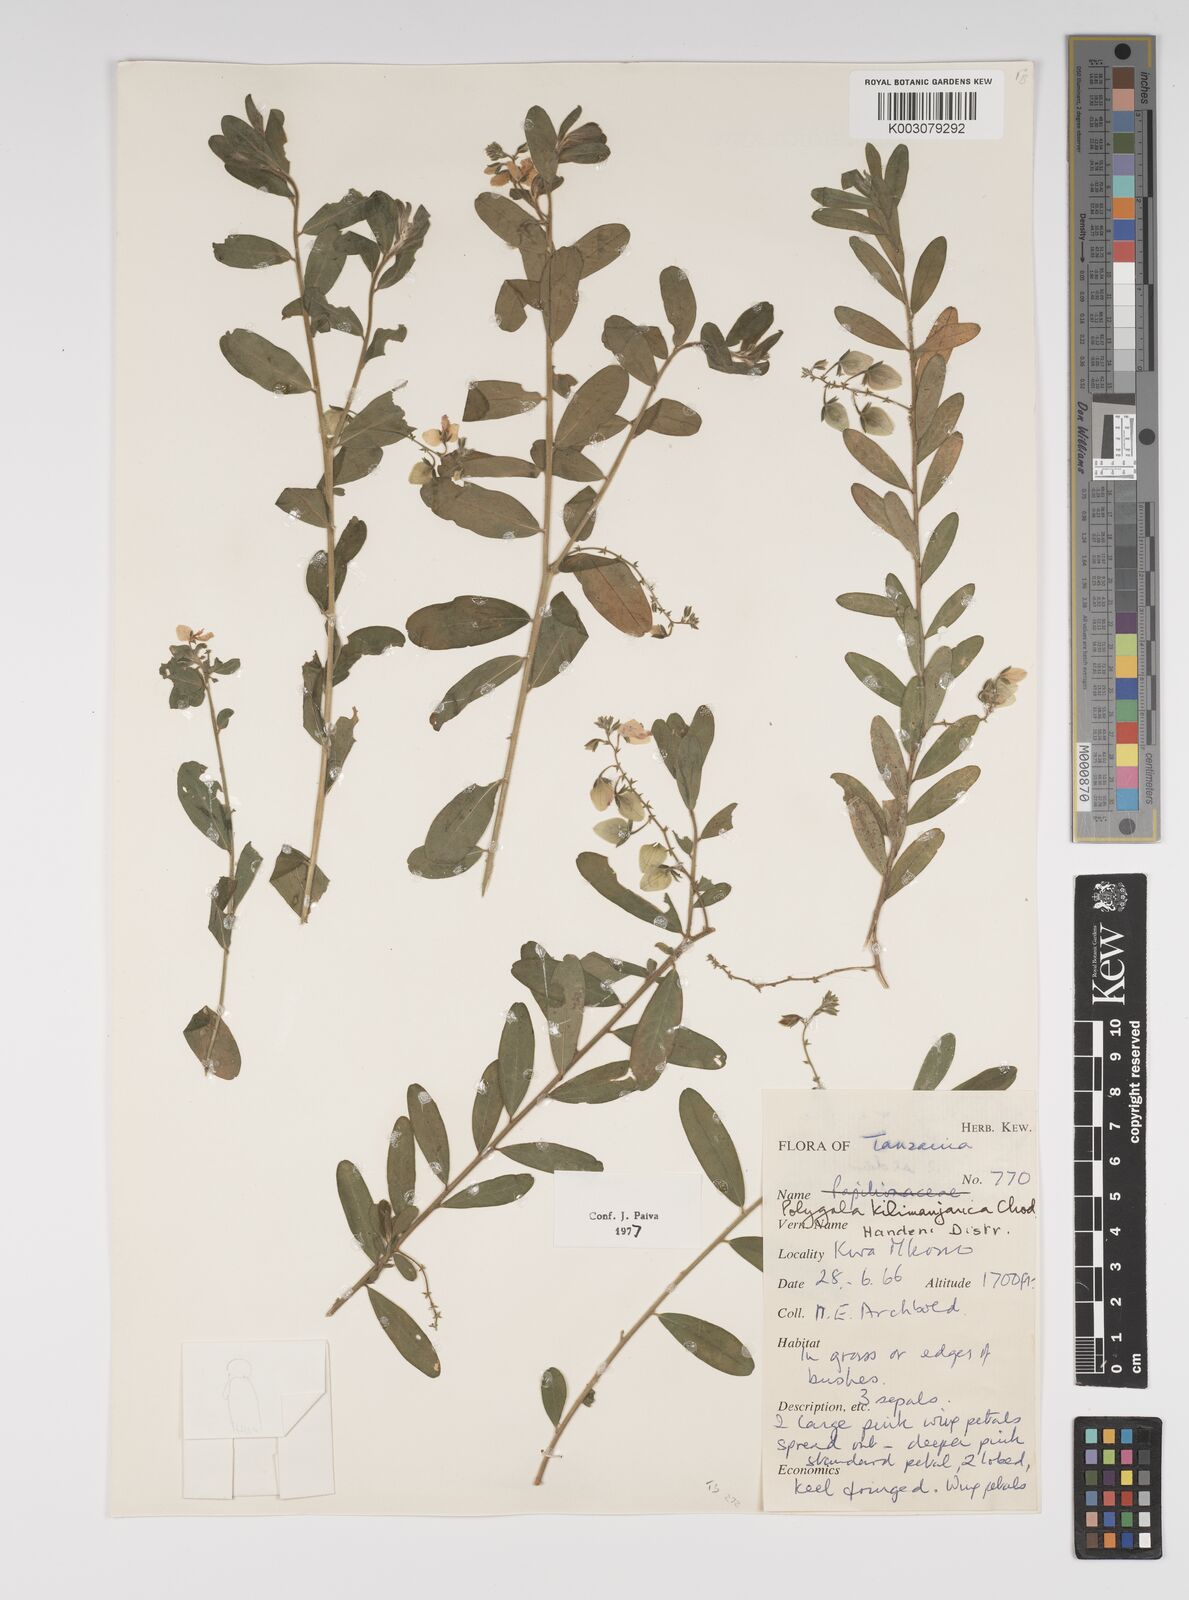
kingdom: Plantae
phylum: Tracheophyta
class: Magnoliopsida
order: Fabales
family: Polygalaceae
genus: Polygala
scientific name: Polygala kilimandjarica
